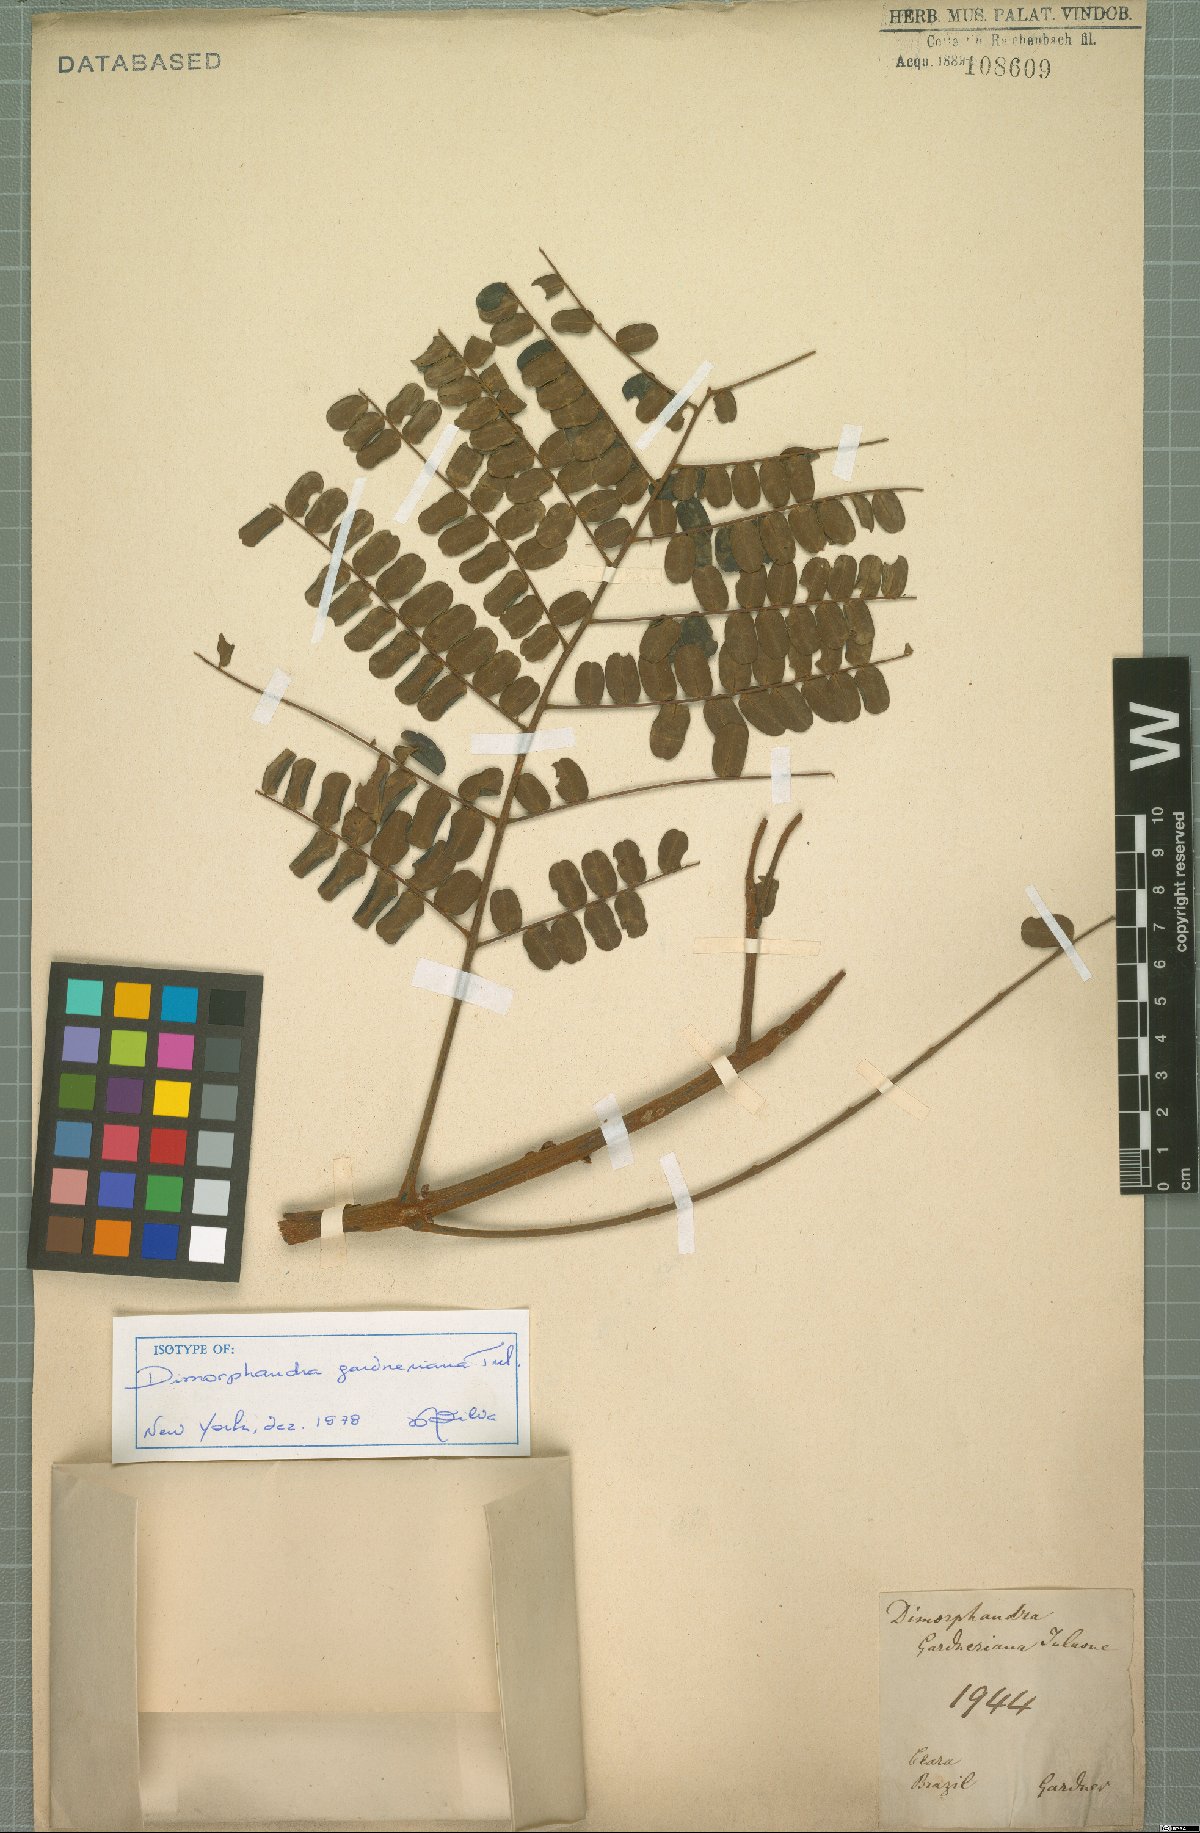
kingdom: Plantae
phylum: Tracheophyta
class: Magnoliopsida
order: Fabales
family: Fabaceae
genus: Dimorphandra
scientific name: Dimorphandra gardneriana
